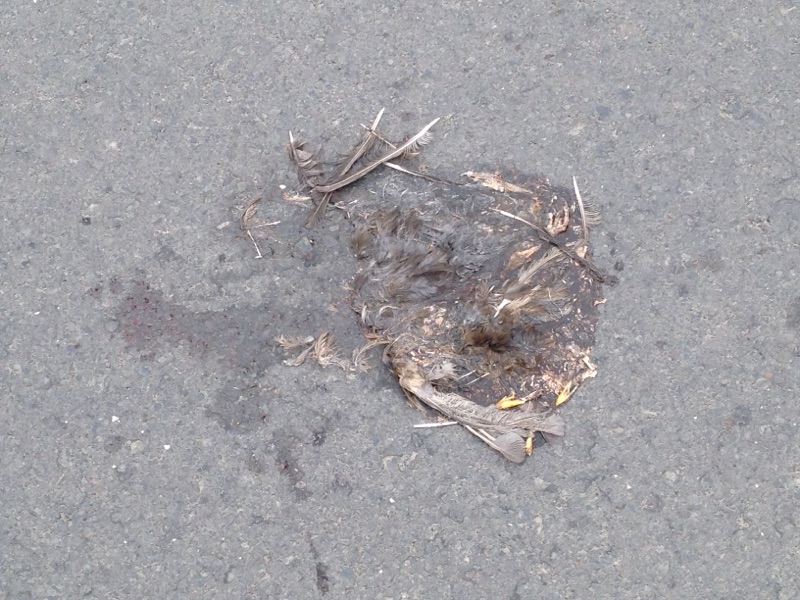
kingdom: Animalia
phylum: Chordata
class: Aves
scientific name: Aves
